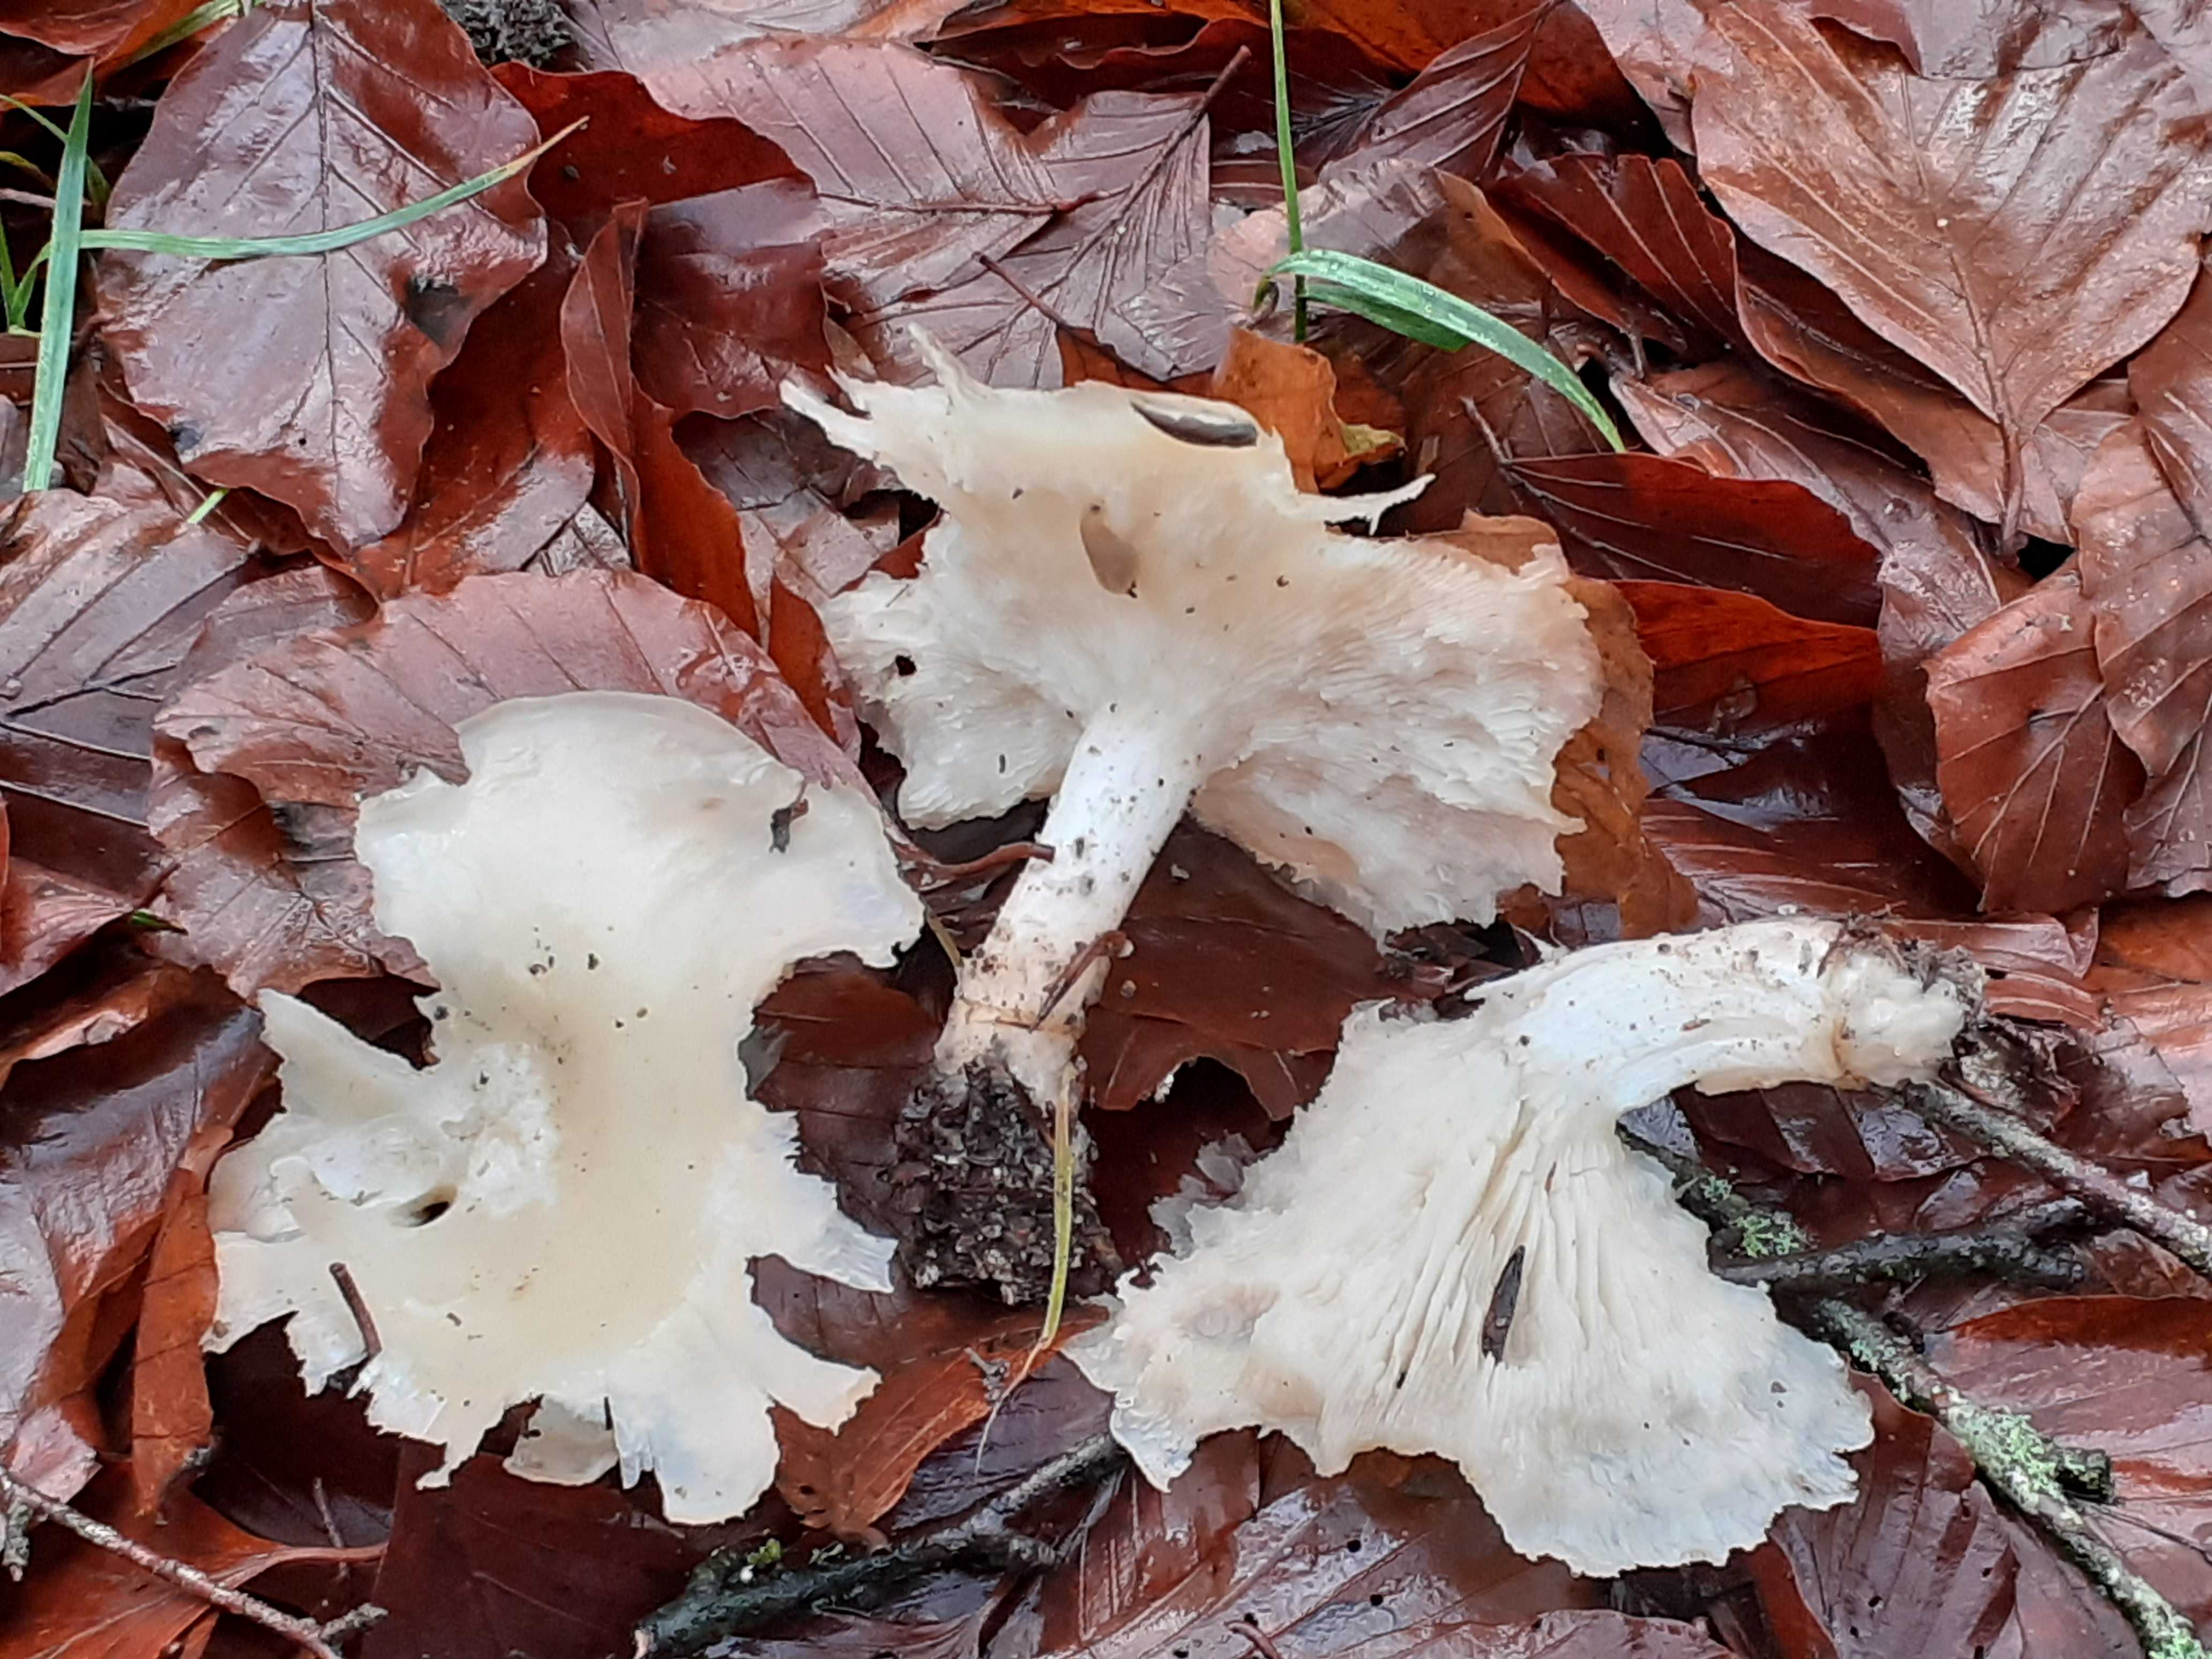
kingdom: Fungi
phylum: Basidiomycota
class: Agaricomycetes
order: Agaricales
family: Tricholomataceae
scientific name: Tricholomataceae
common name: ridderhatfamilien
